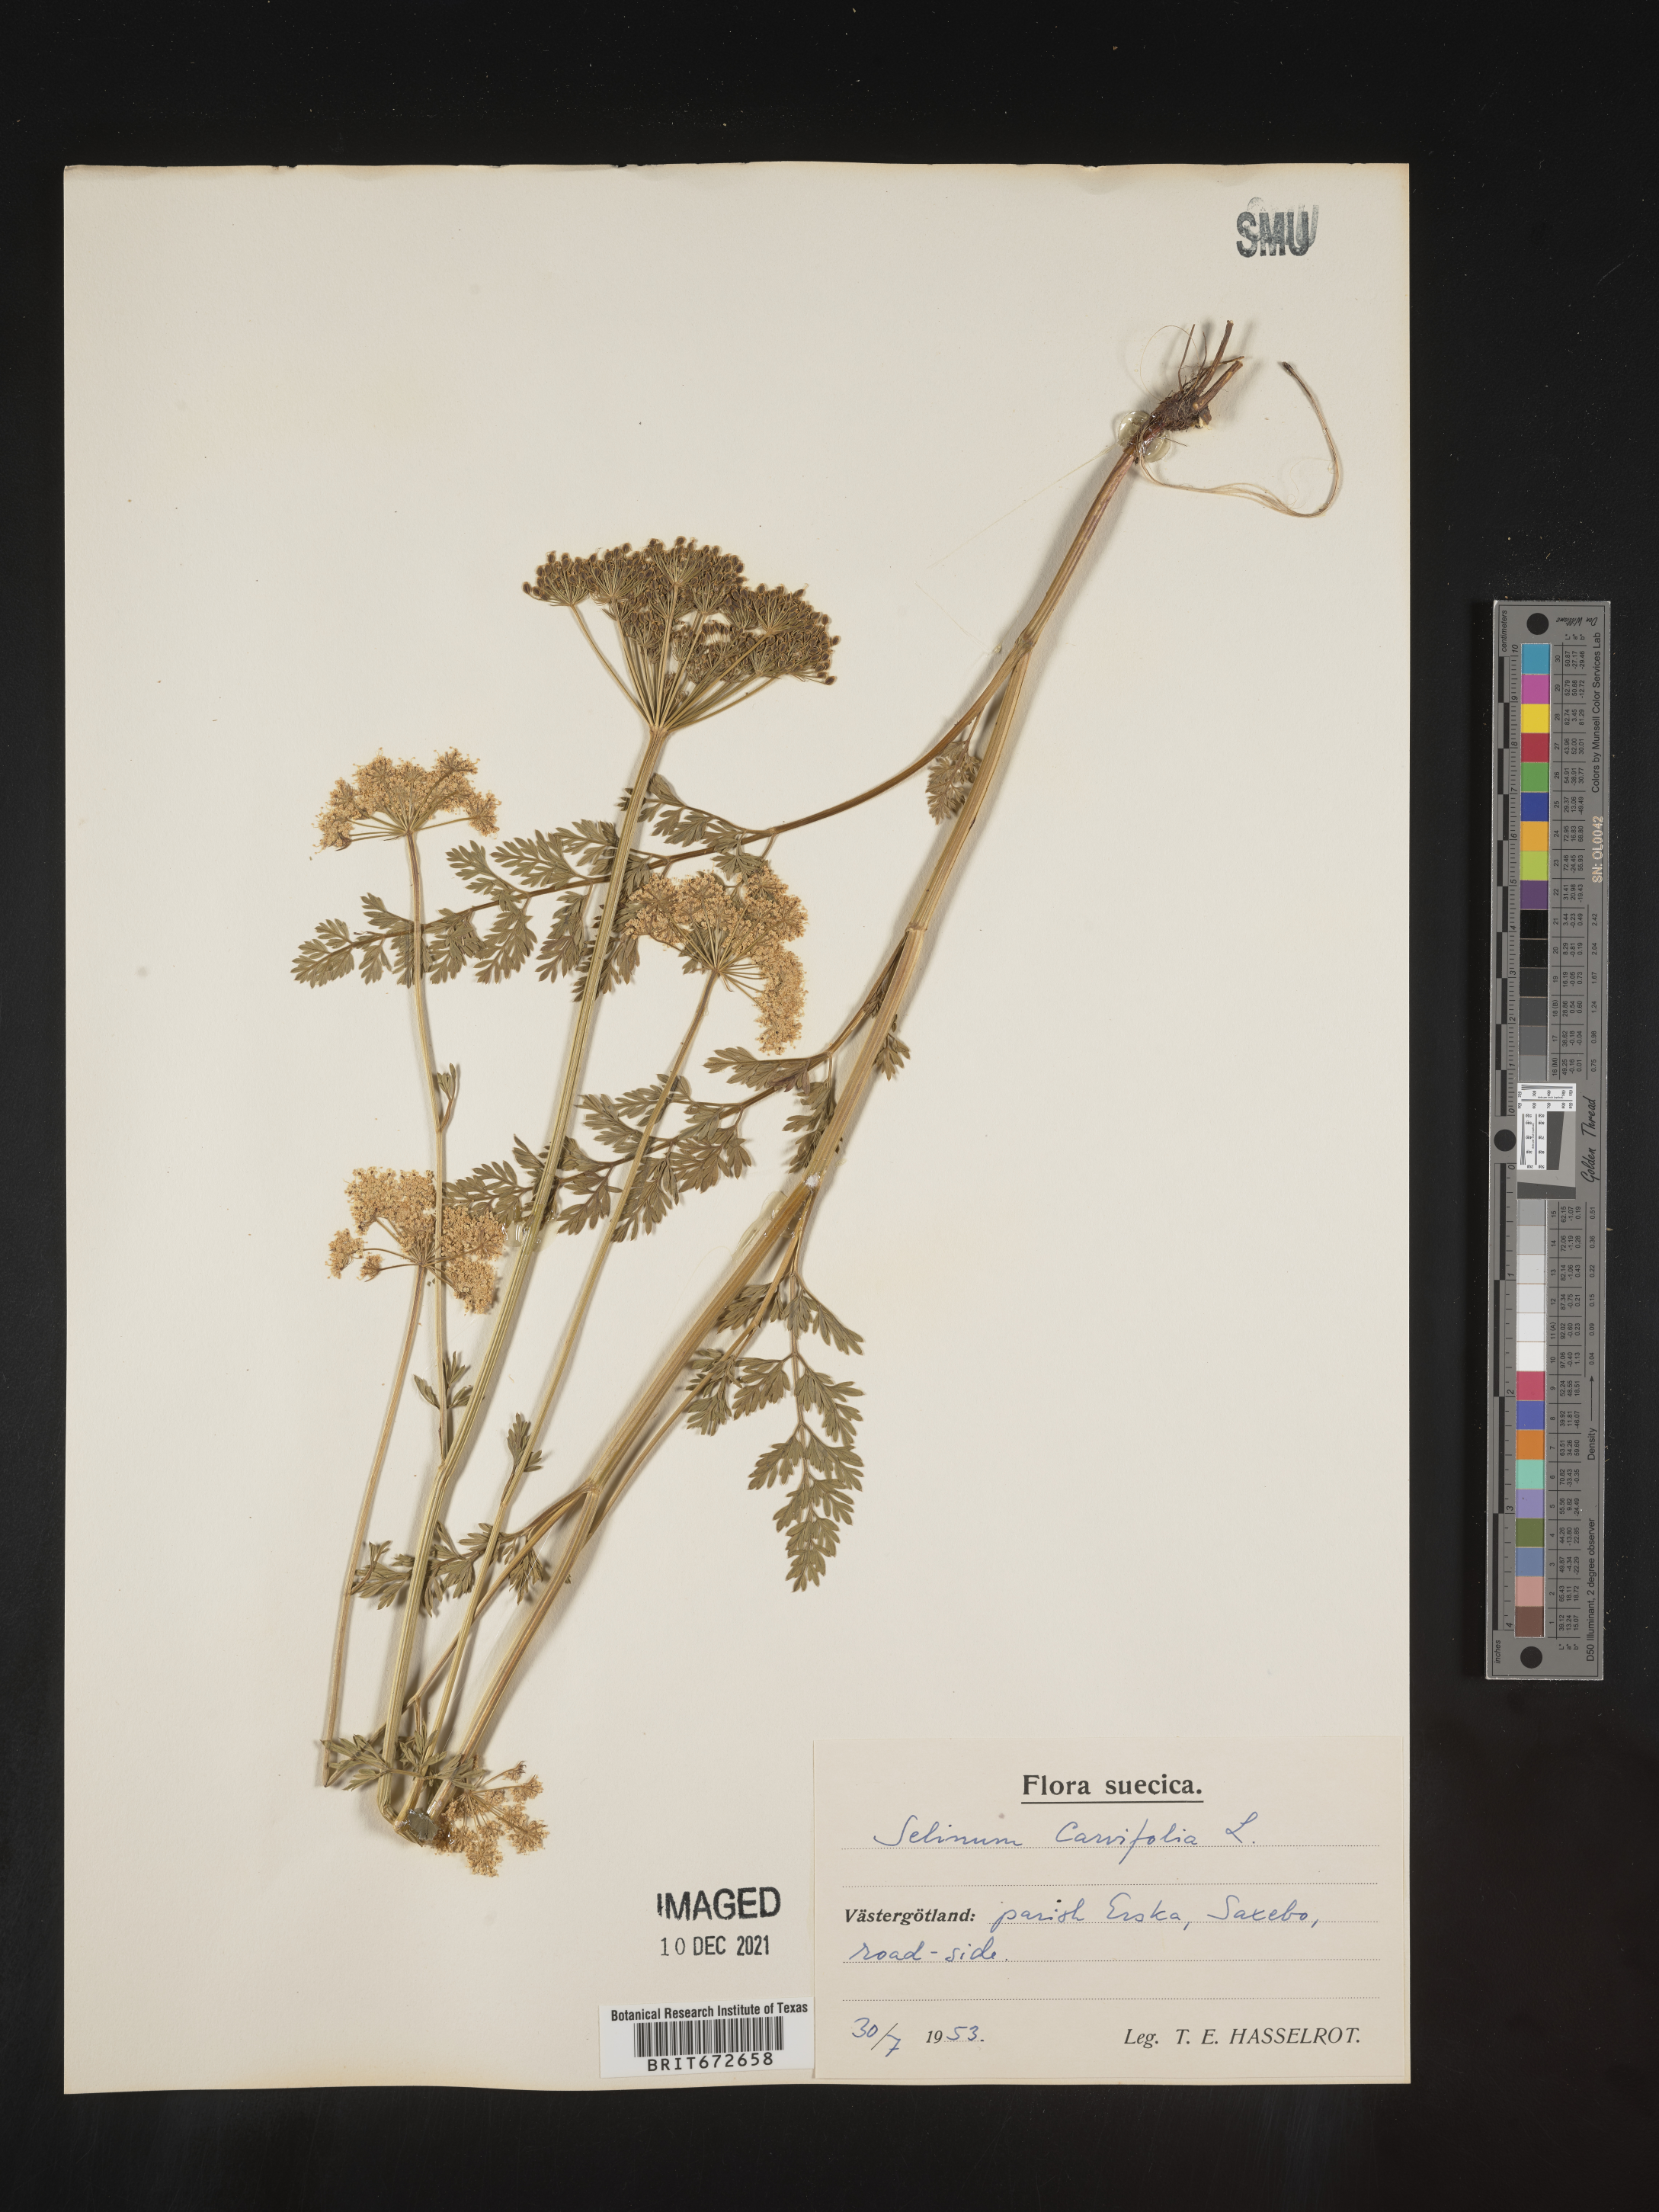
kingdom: Plantae
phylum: Tracheophyta
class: Magnoliopsida
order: Apiales
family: Apiaceae
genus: Selinum
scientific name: Selinum
